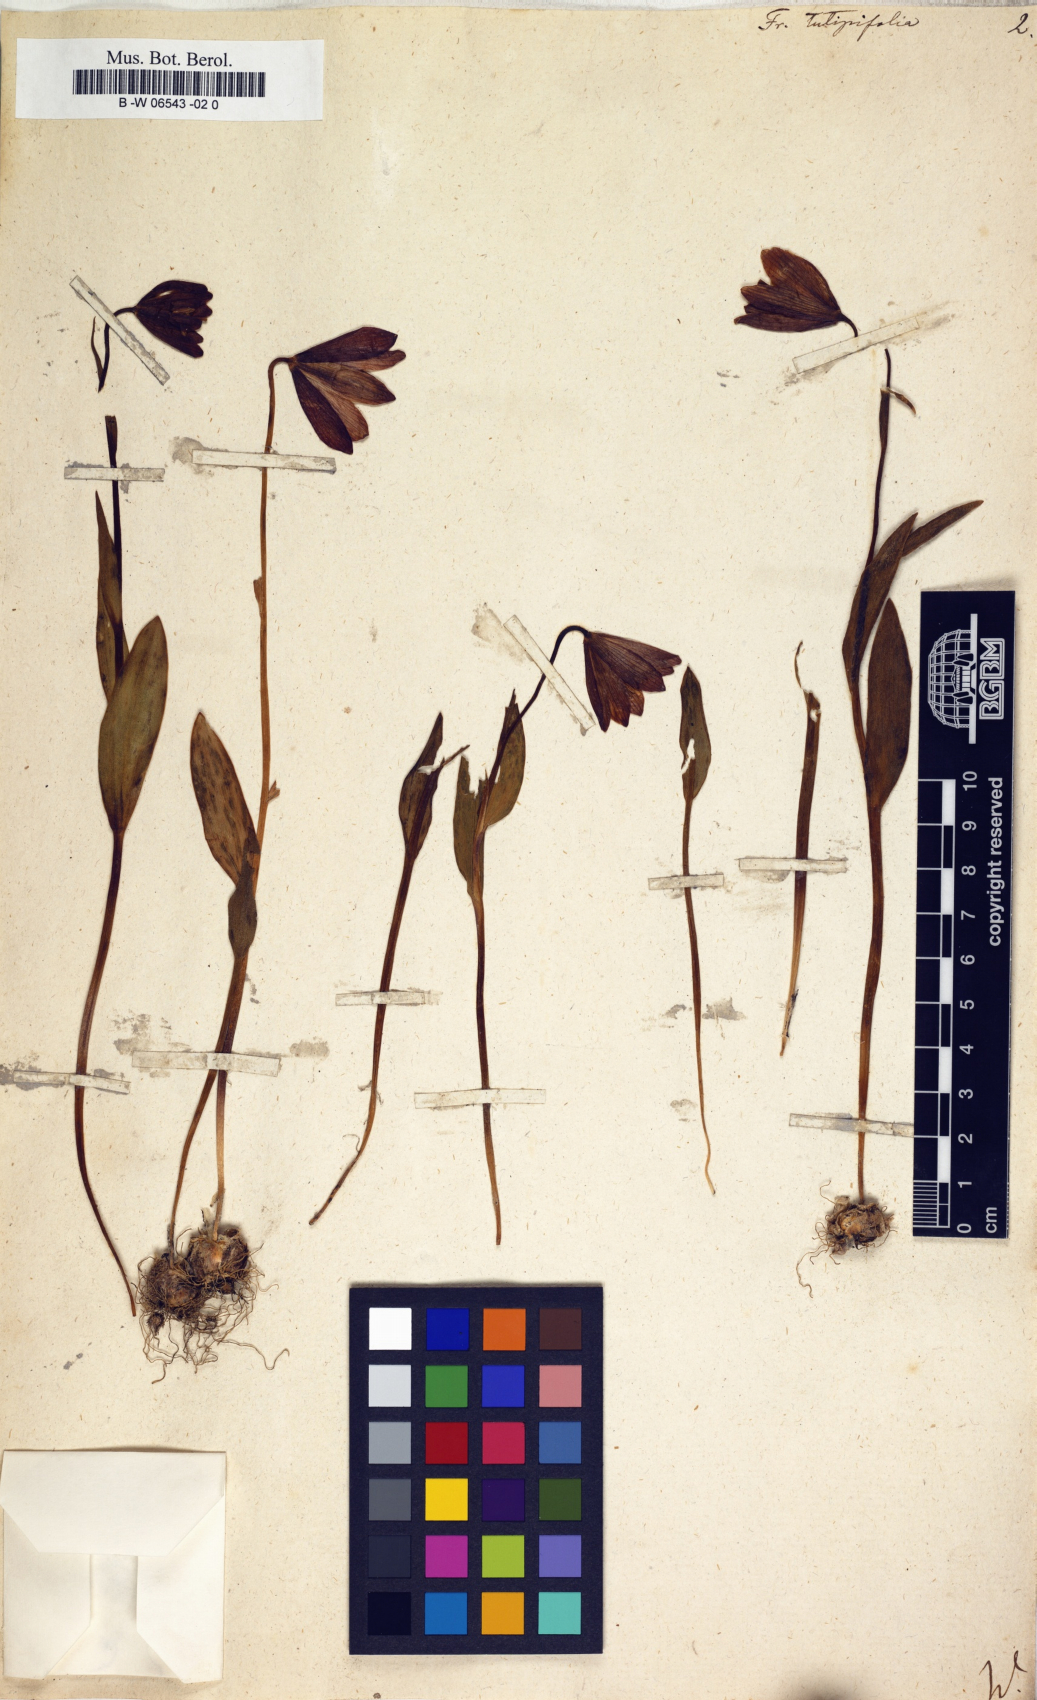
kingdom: Plantae
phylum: Tracheophyta
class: Liliopsida
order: Liliales
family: Liliaceae
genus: Fritillaria
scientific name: Fritillaria tulipifolia
